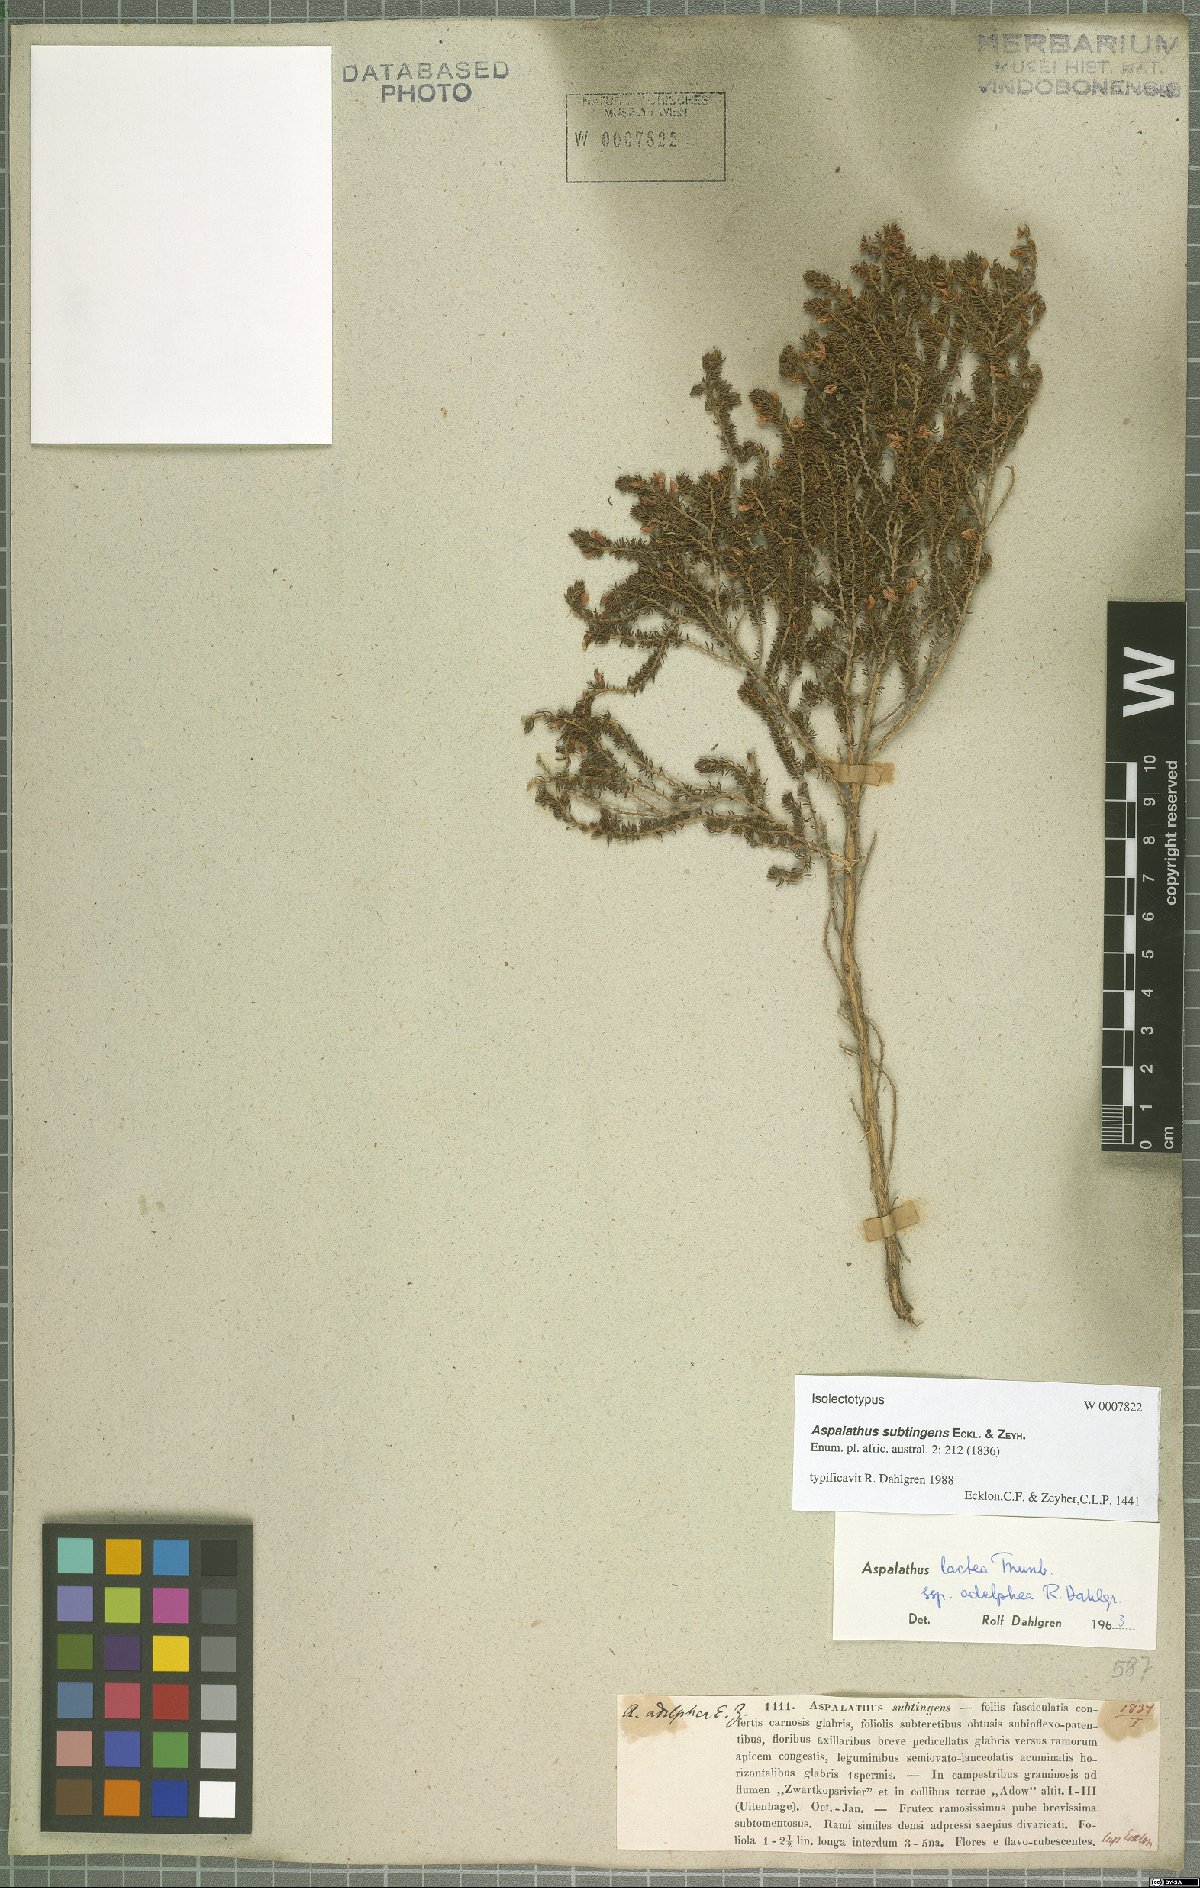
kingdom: Plantae
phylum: Tracheophyta
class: Magnoliopsida
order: Fabales
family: Fabaceae
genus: Aspalathus
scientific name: Aspalathus subtingens
